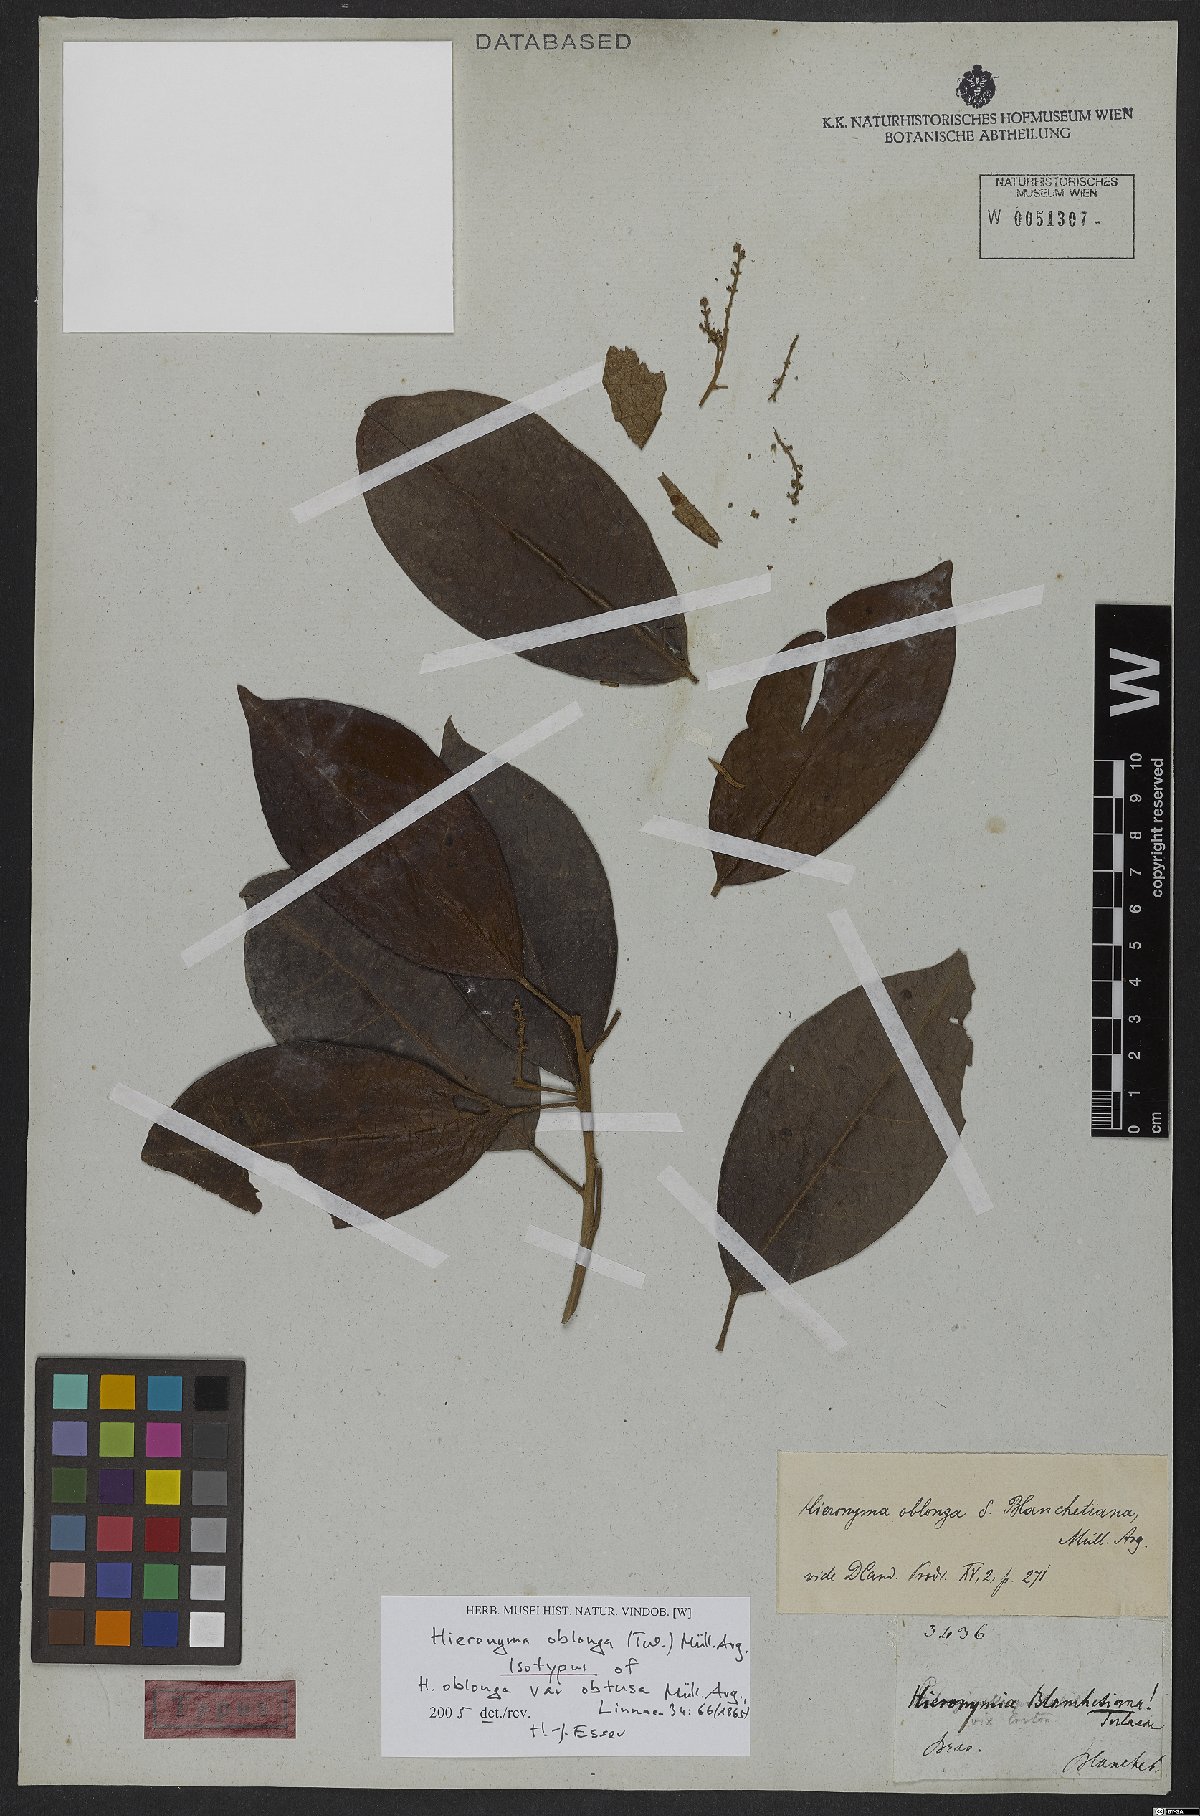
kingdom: Plantae
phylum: Tracheophyta
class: Magnoliopsida
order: Malpighiales
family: Phyllanthaceae
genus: Hieronyma
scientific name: Hieronyma oblonga
